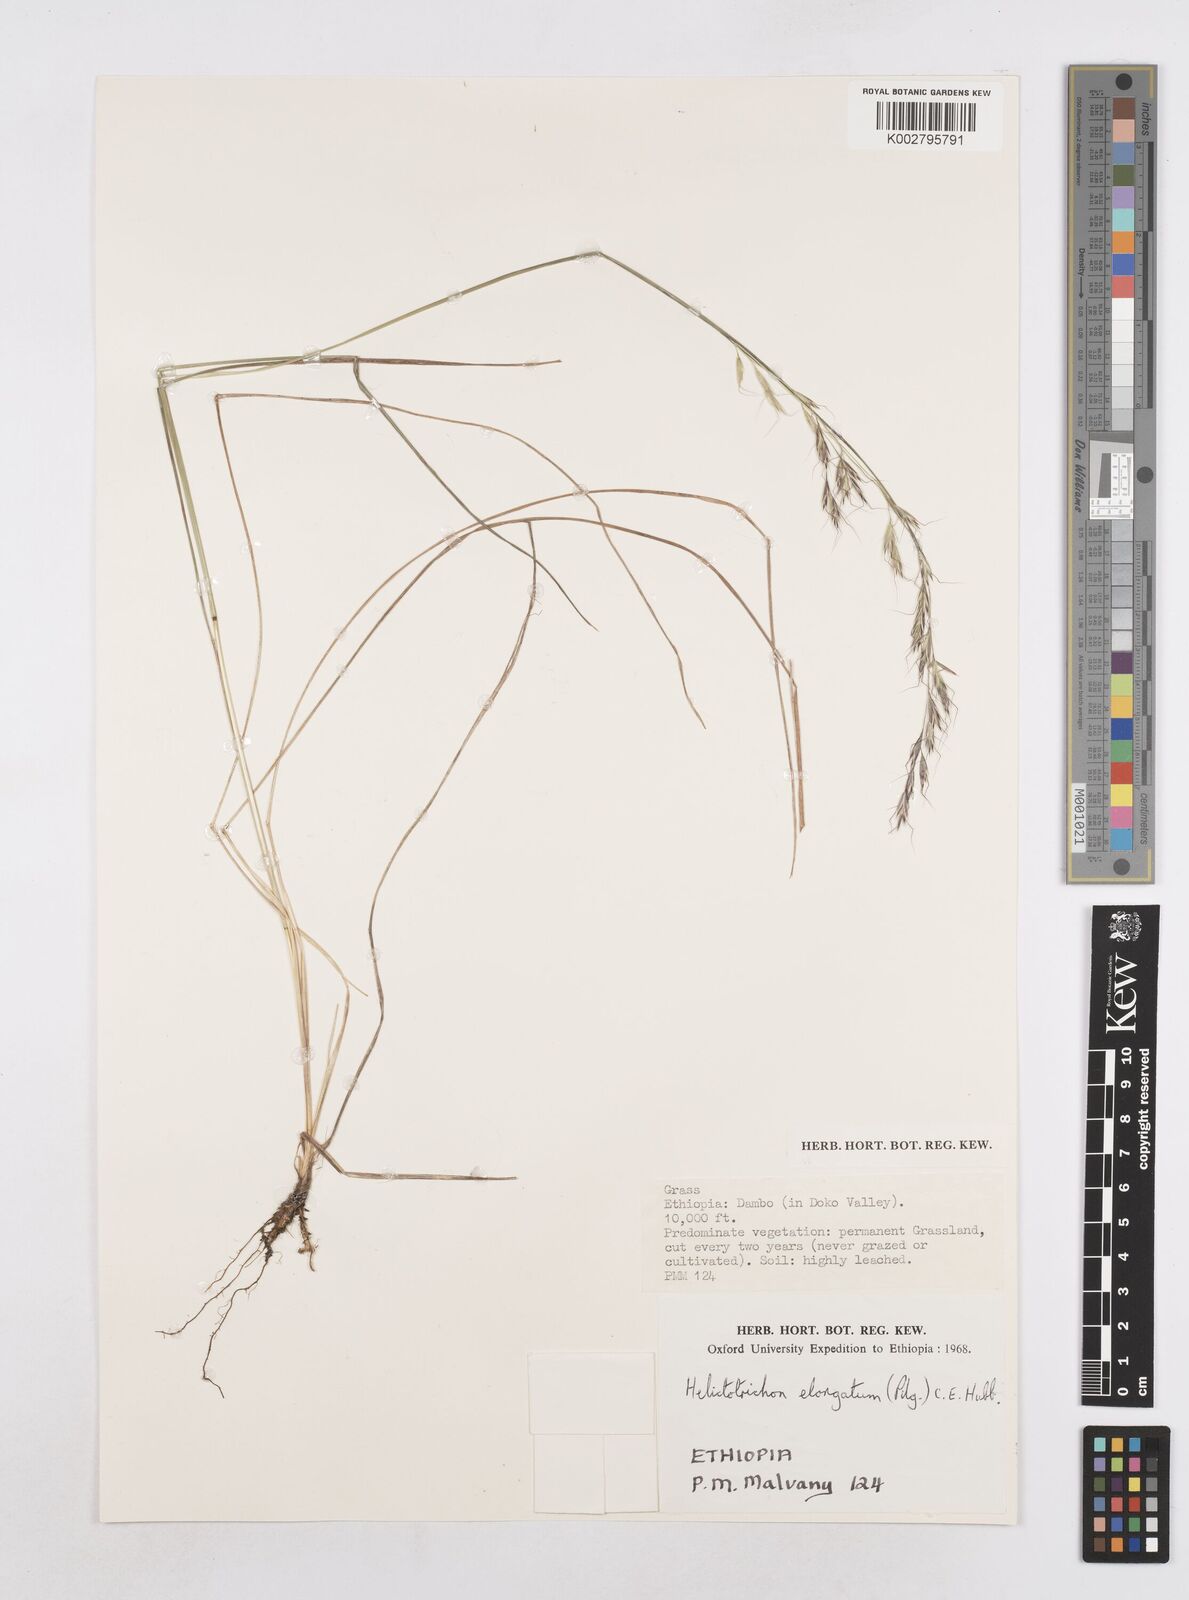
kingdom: Plantae
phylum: Tracheophyta
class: Liliopsida
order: Poales
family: Poaceae
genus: Trisetopsis
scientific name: Trisetopsis elongata
